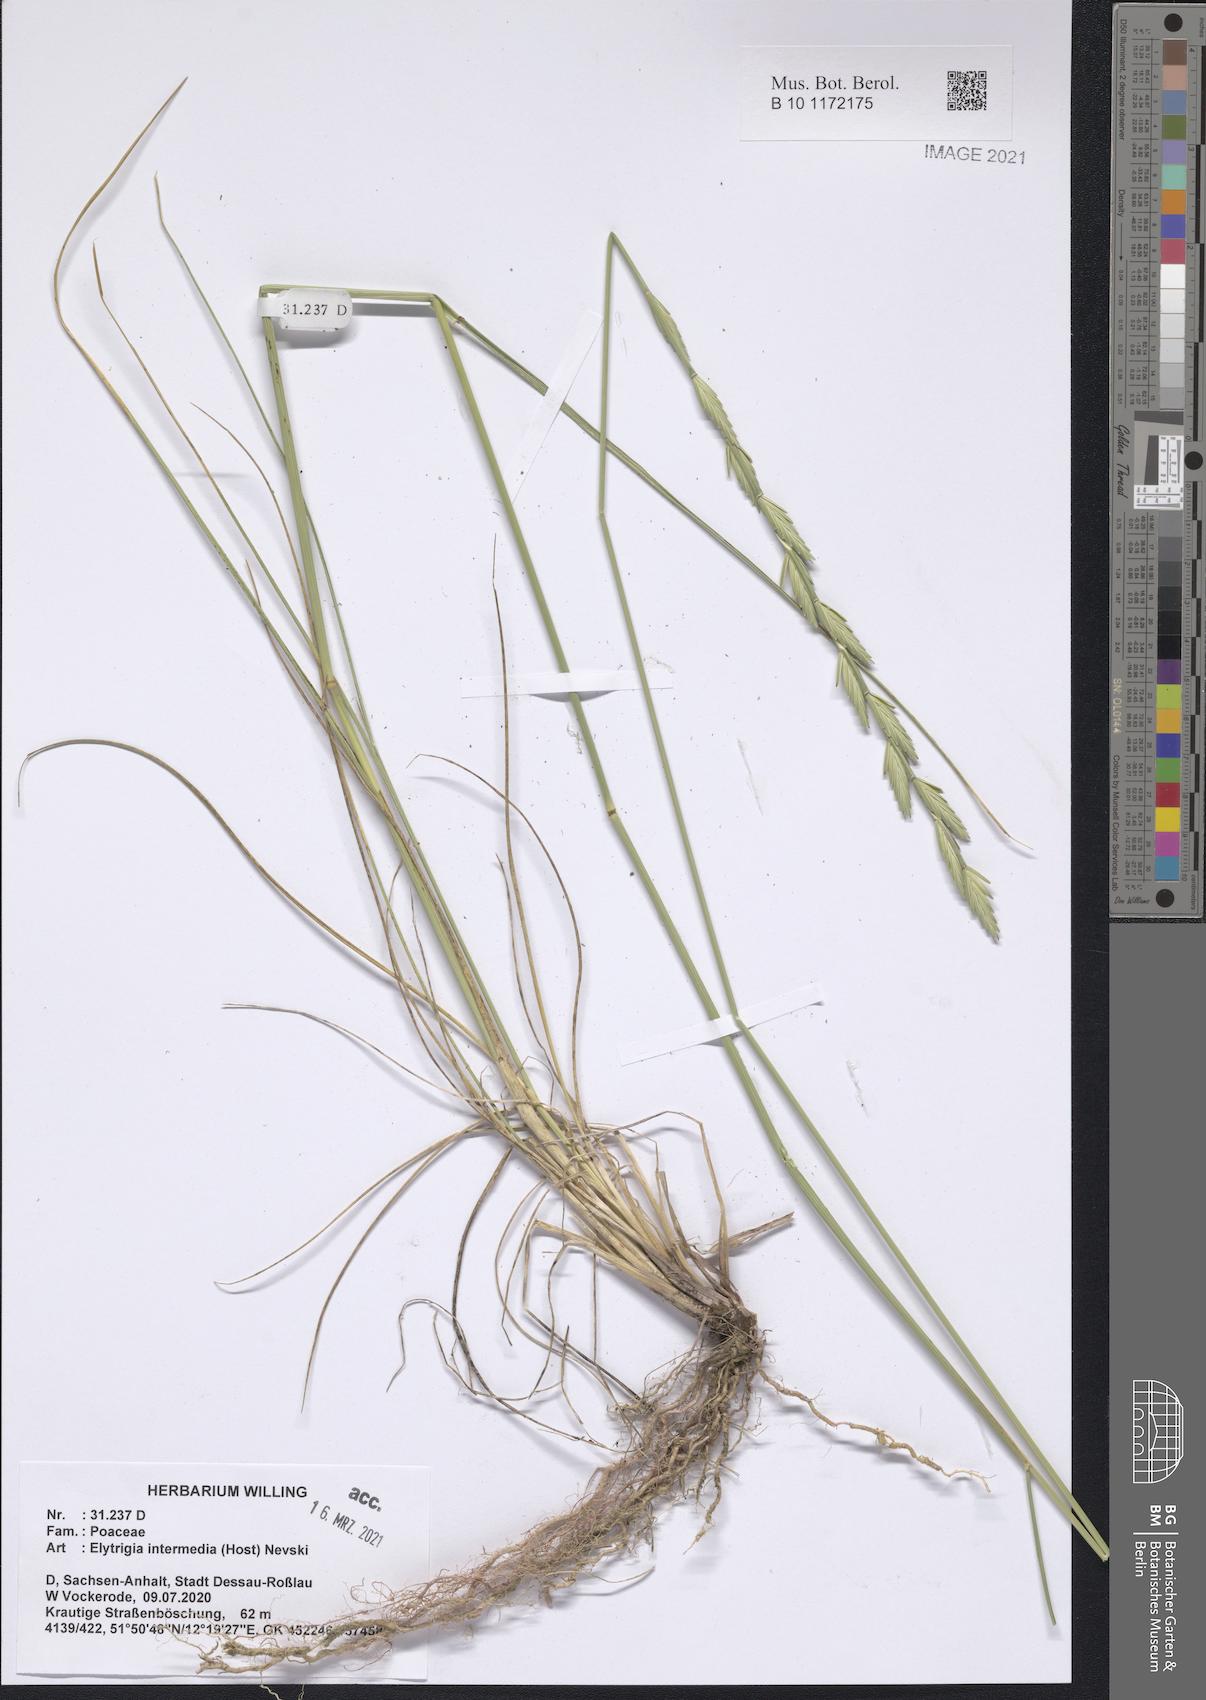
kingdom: Plantae
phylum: Tracheophyta
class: Liliopsida
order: Poales
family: Poaceae
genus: Thinopyrum
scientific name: Thinopyrum intermedium
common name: Intermediate wheatgrass
